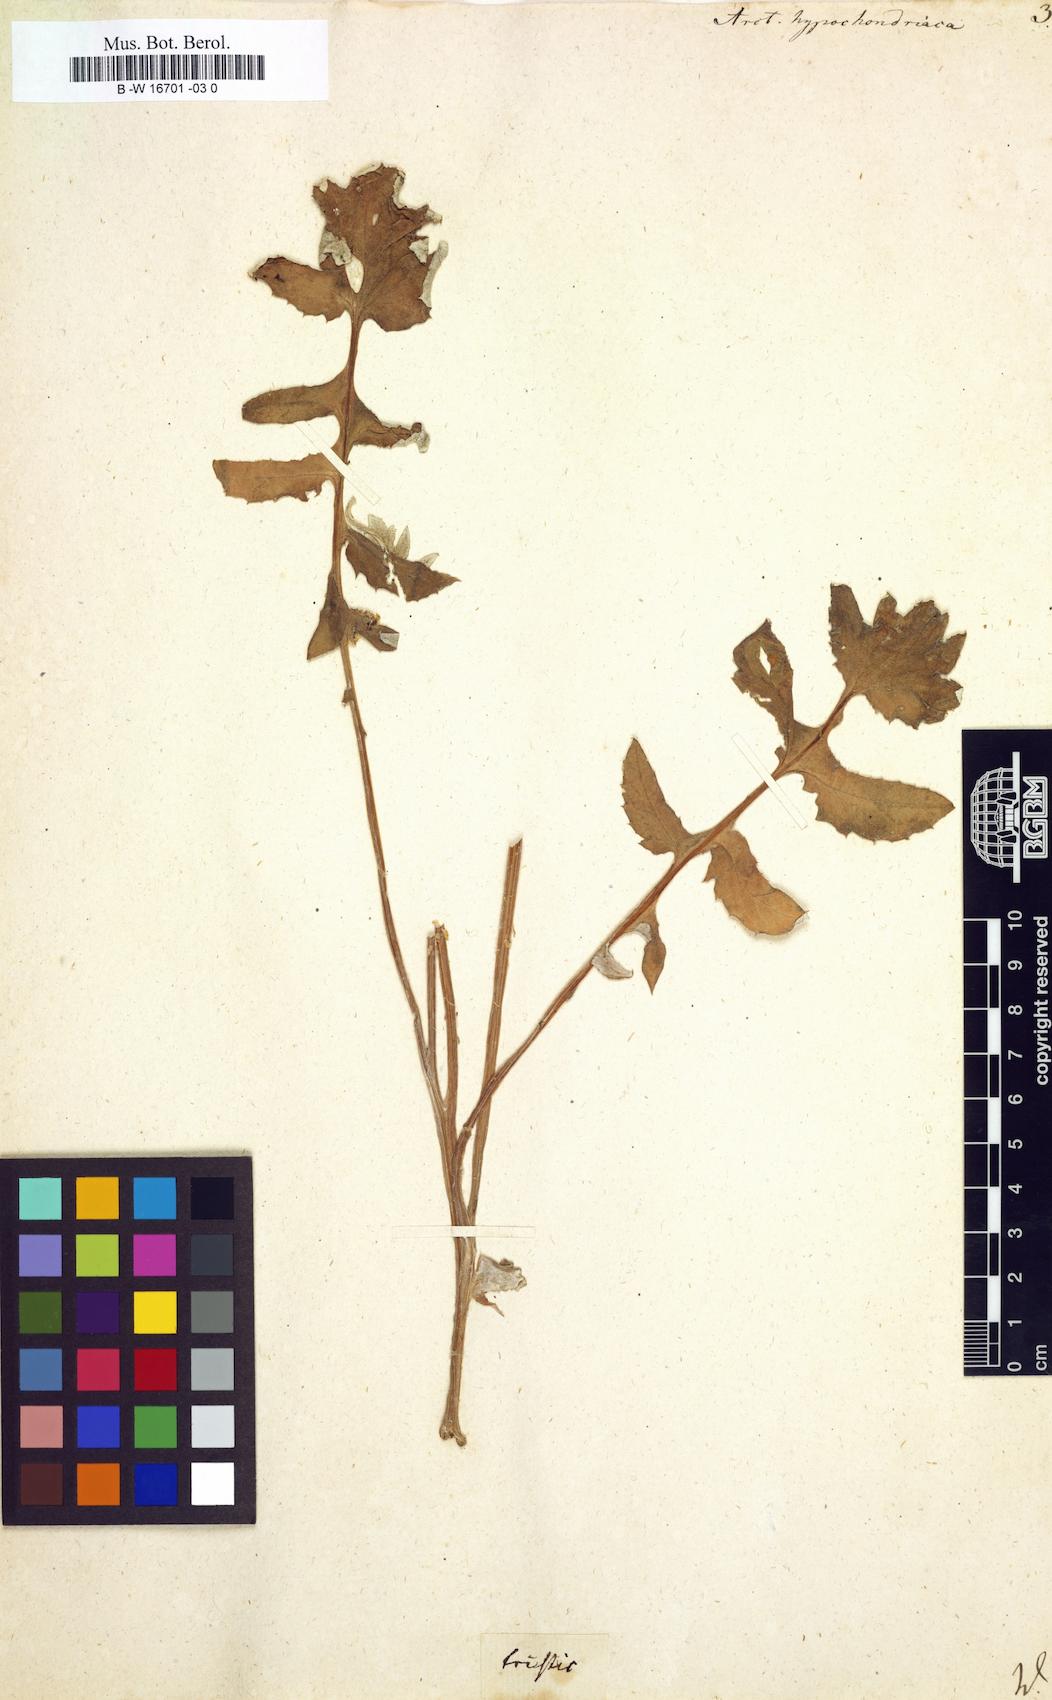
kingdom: Plantae
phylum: Tracheophyta
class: Magnoliopsida
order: Asterales
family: Asteraceae
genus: Arctotheca
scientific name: Arctotheca calendula
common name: Capeweed
